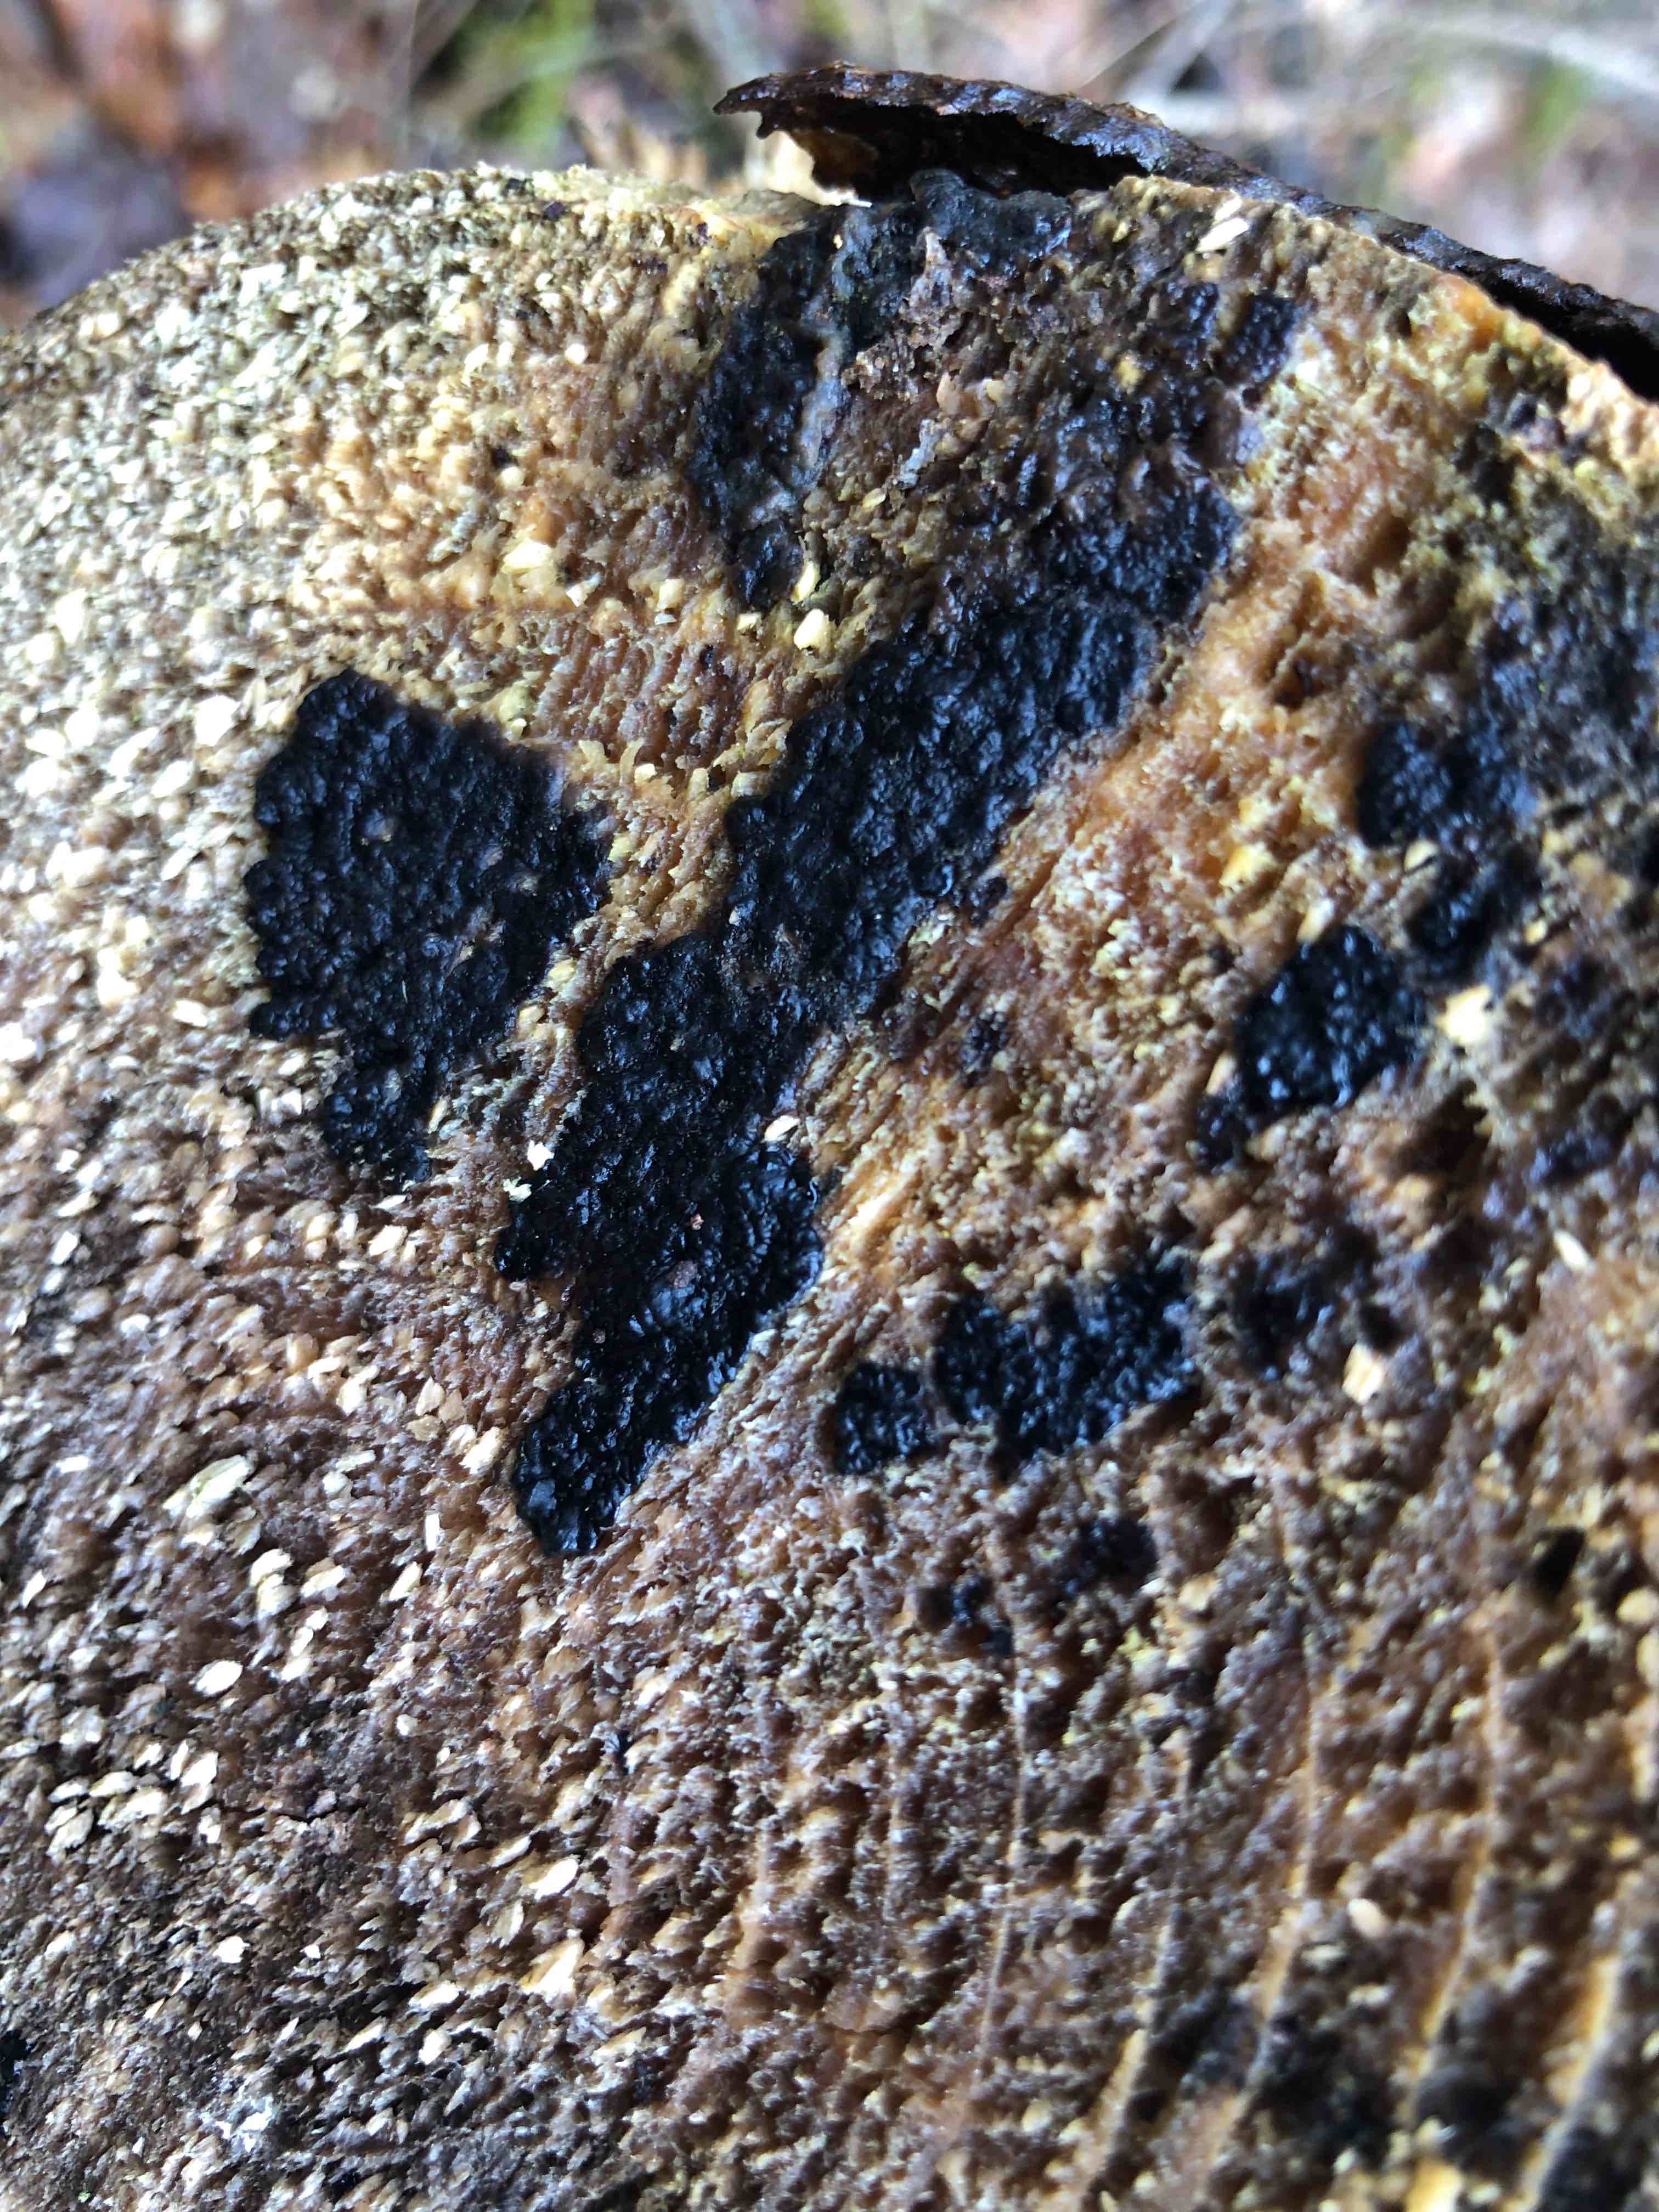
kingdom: Fungi
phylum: Basidiomycota
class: Agaricomycetes
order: Auriculariales
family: Auriculariaceae
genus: Exidia
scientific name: Exidia pithya
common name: gran-bævretop
